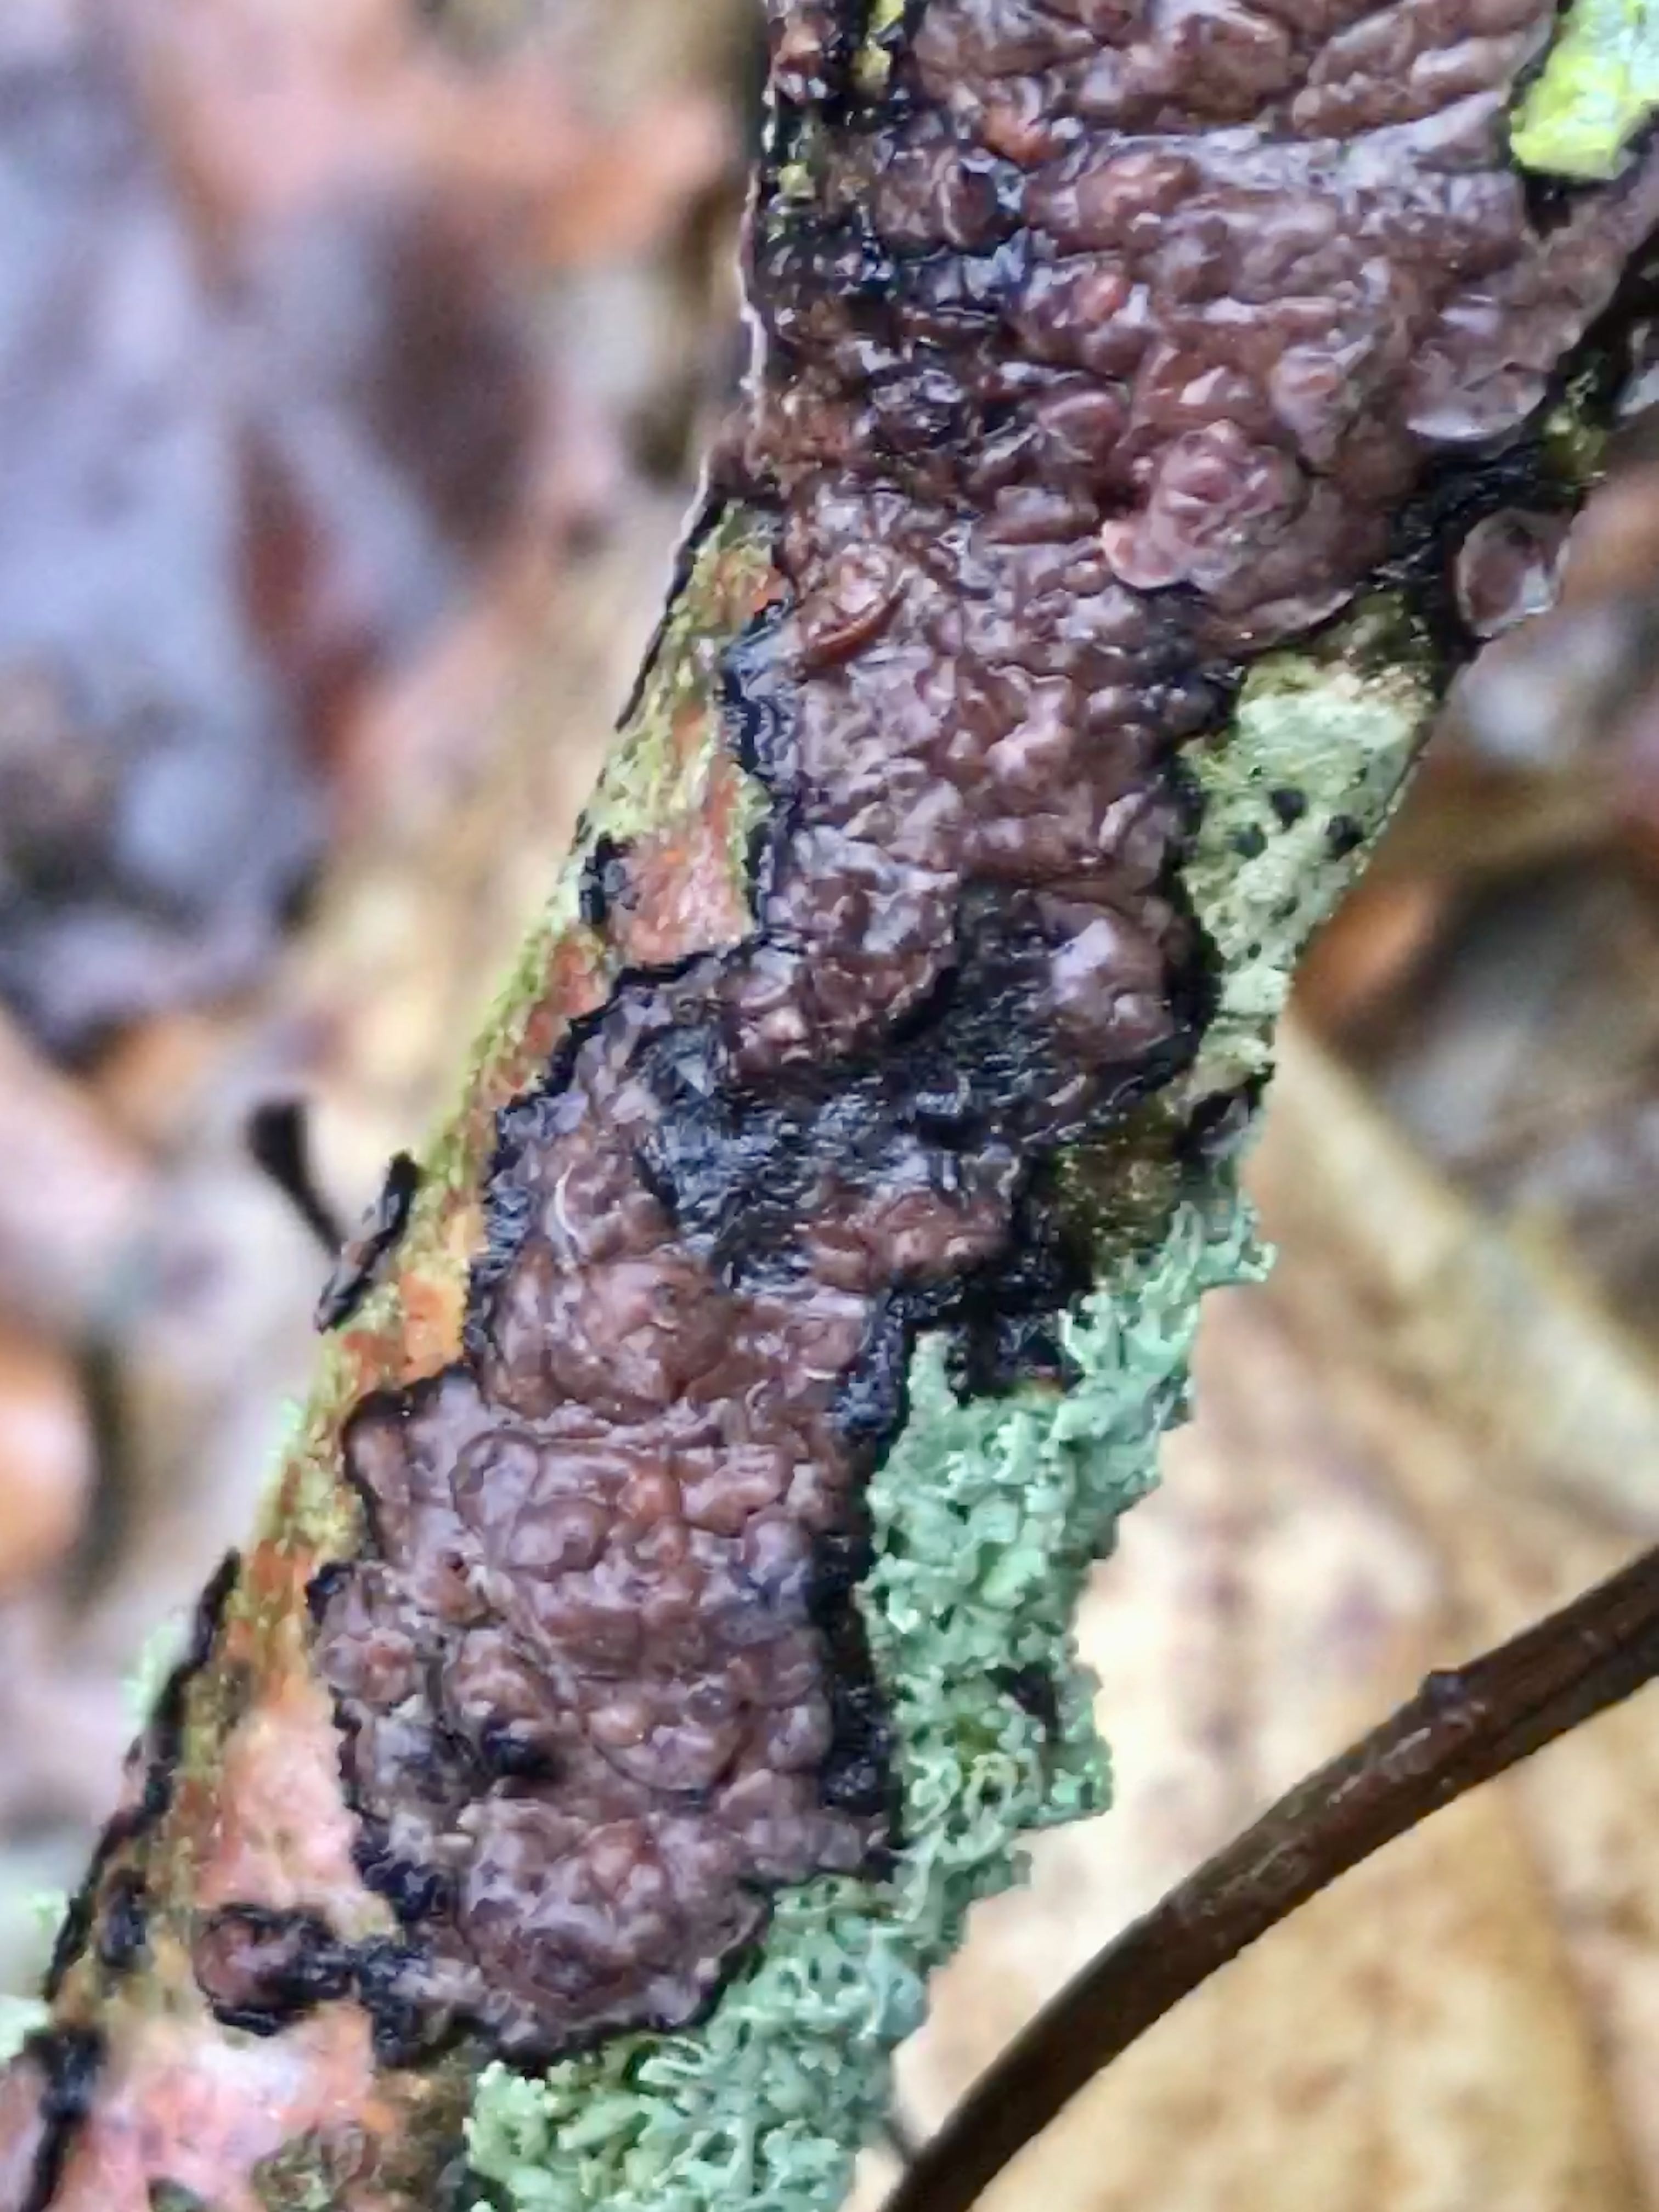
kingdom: Fungi
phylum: Basidiomycota
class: Agaricomycetes
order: Russulales
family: Peniophoraceae
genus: Peniophora
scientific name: Peniophora quercina
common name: ege-voksskind
